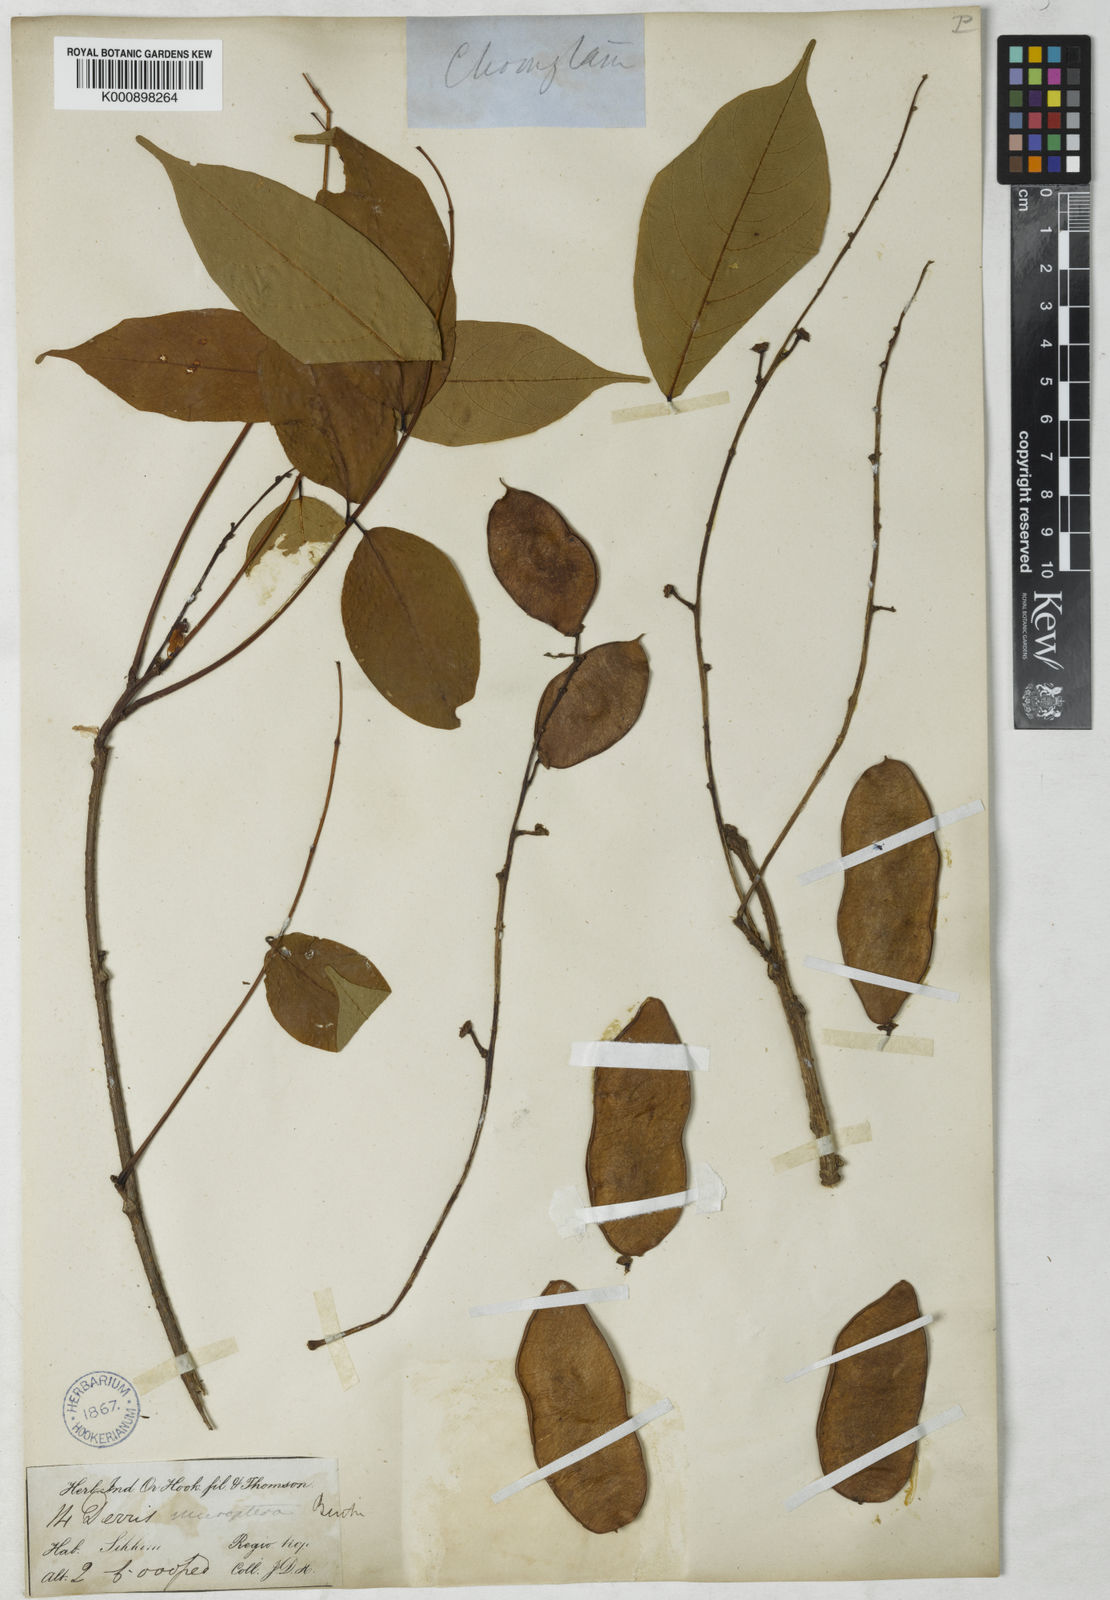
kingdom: Plantae
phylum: Tracheophyta
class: Magnoliopsida
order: Fabales
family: Fabaceae
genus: Derris
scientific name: Derris monticola
